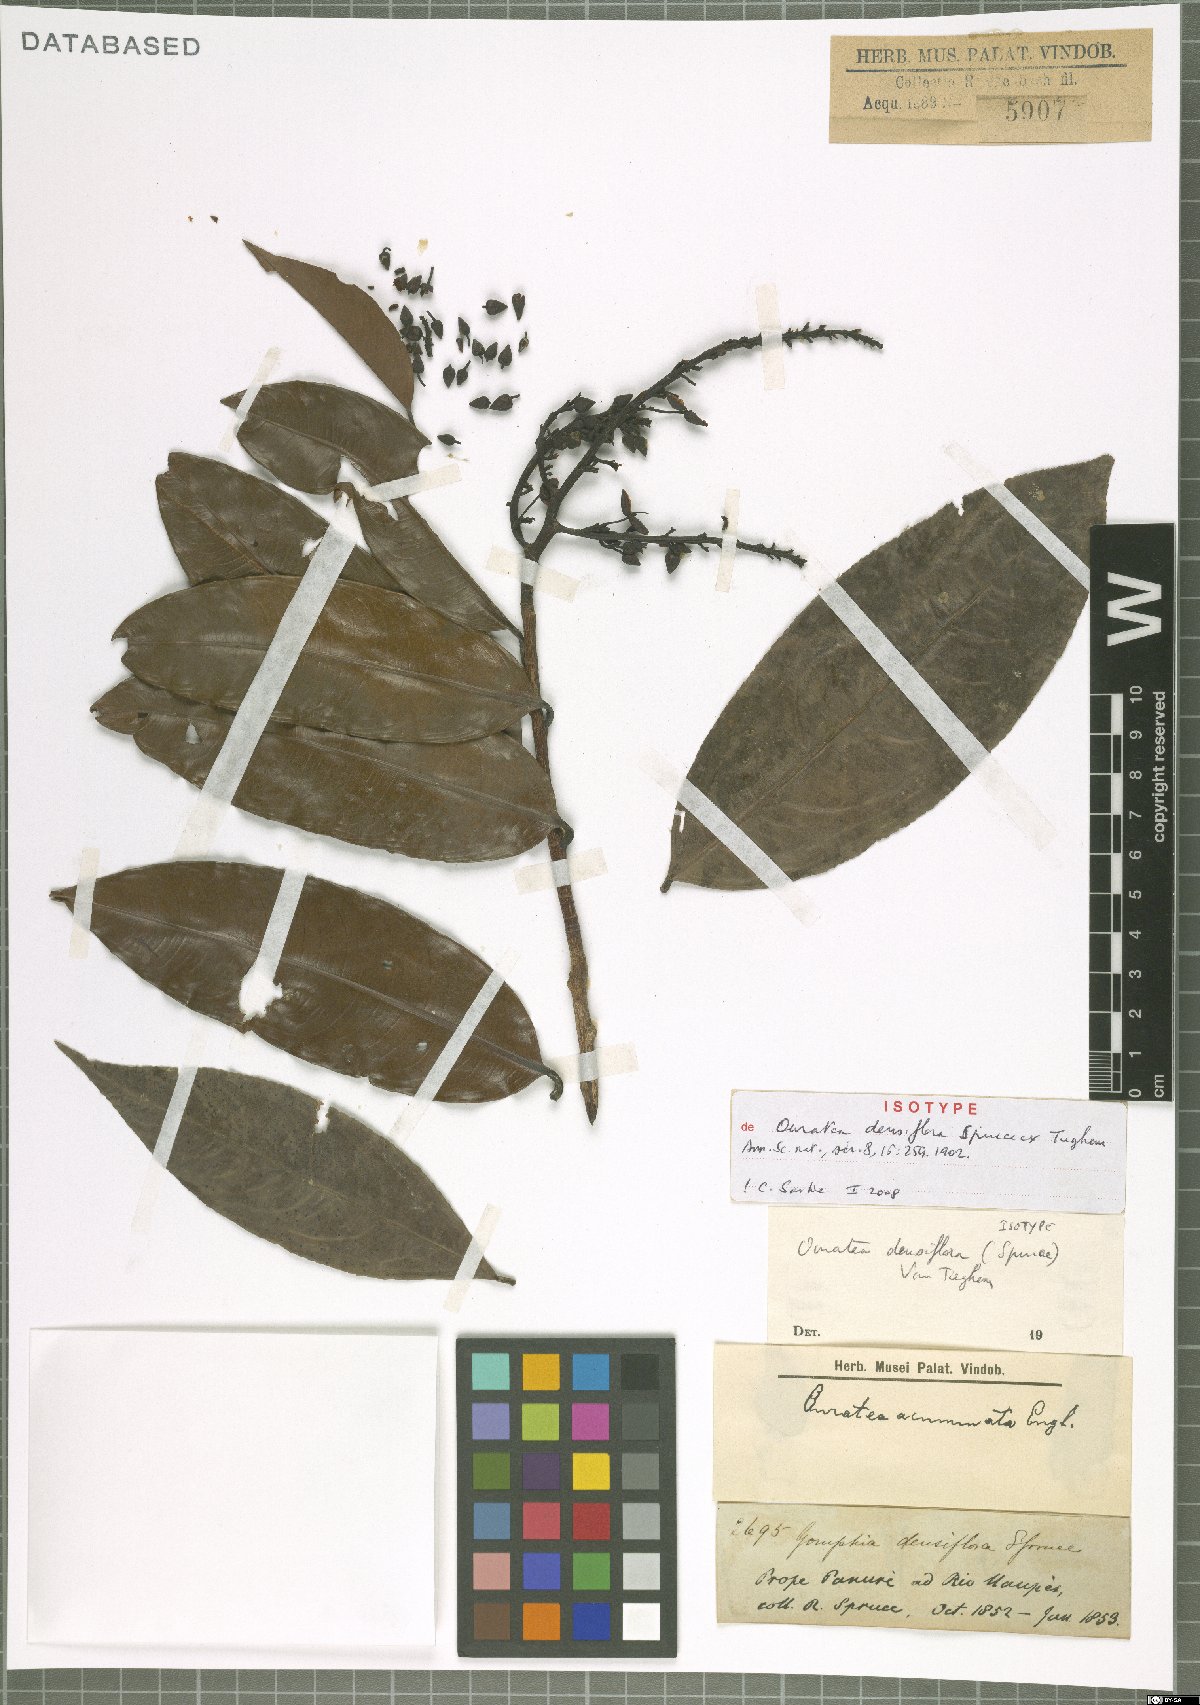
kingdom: Plantae
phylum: Tracheophyta
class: Magnoliopsida
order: Malpighiales
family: Ochnaceae
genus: Ouratea
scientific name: Ouratea pycnanthos
